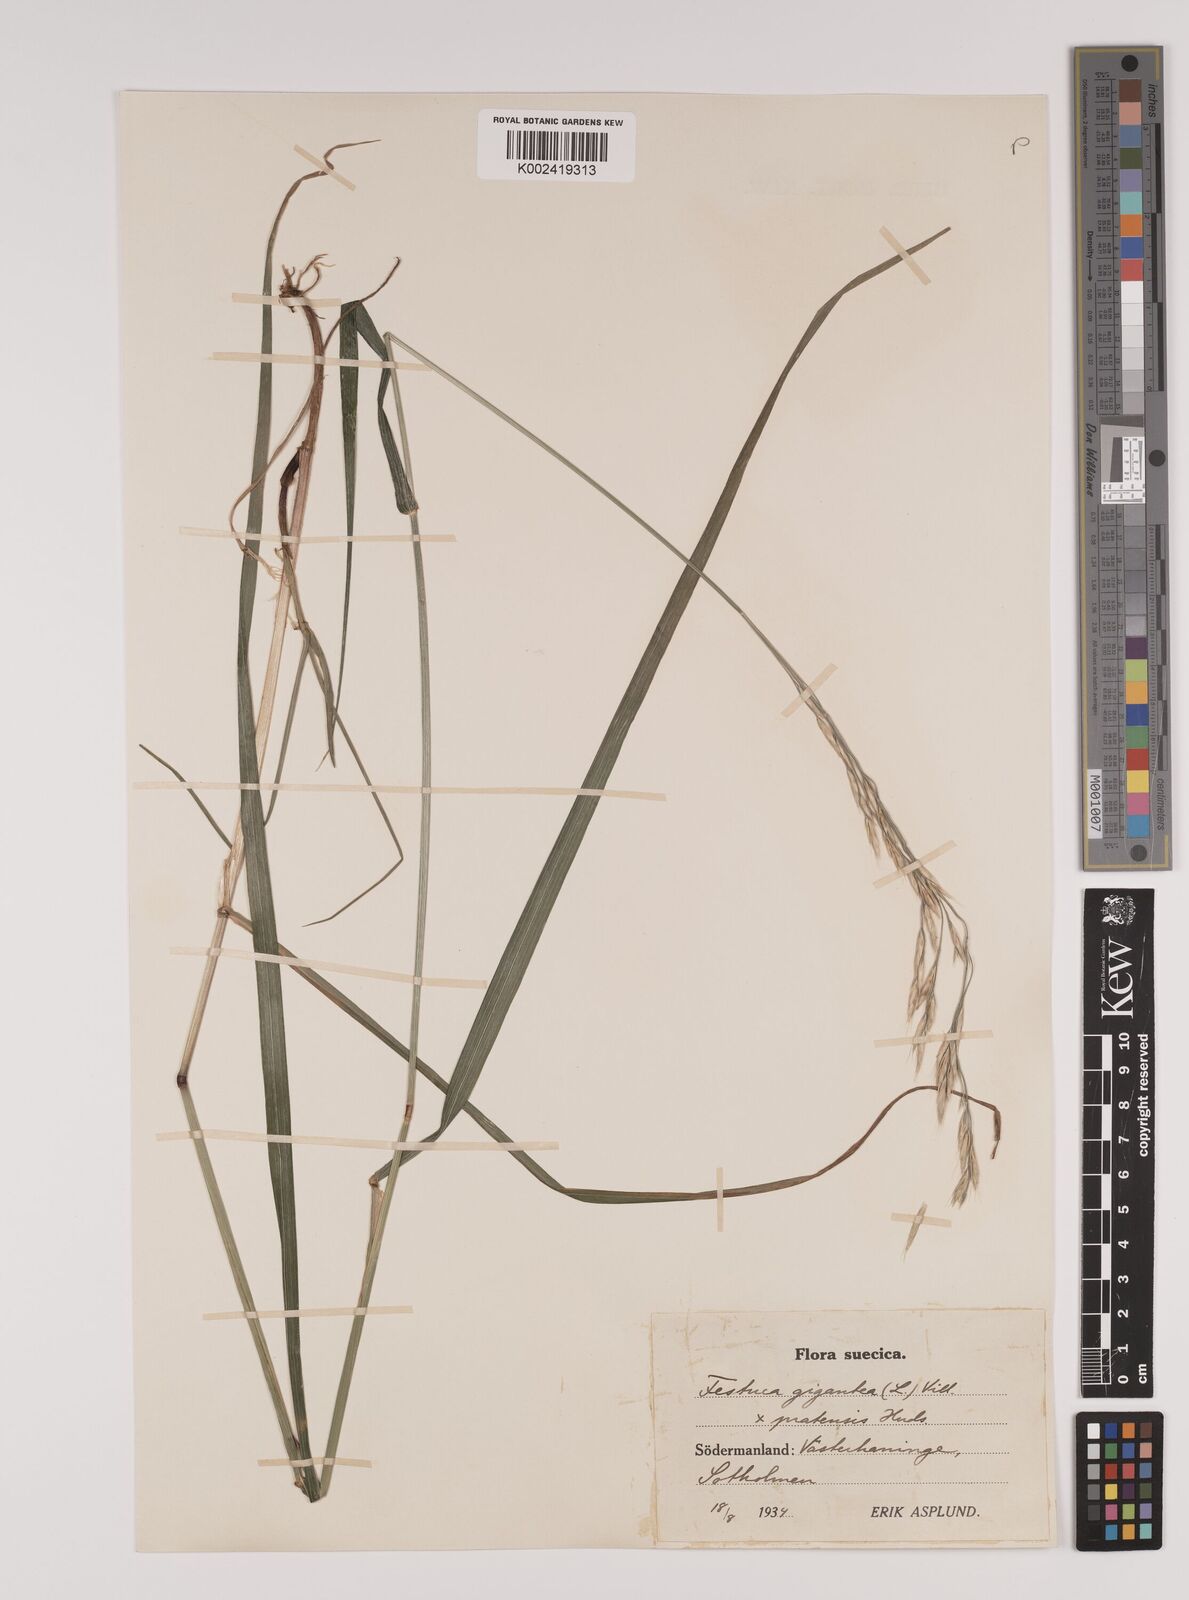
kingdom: Plantae
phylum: Tracheophyta
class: Liliopsida
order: Poales
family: Poaceae
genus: Lolium
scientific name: Lolium giganteum
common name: Giant fescue
